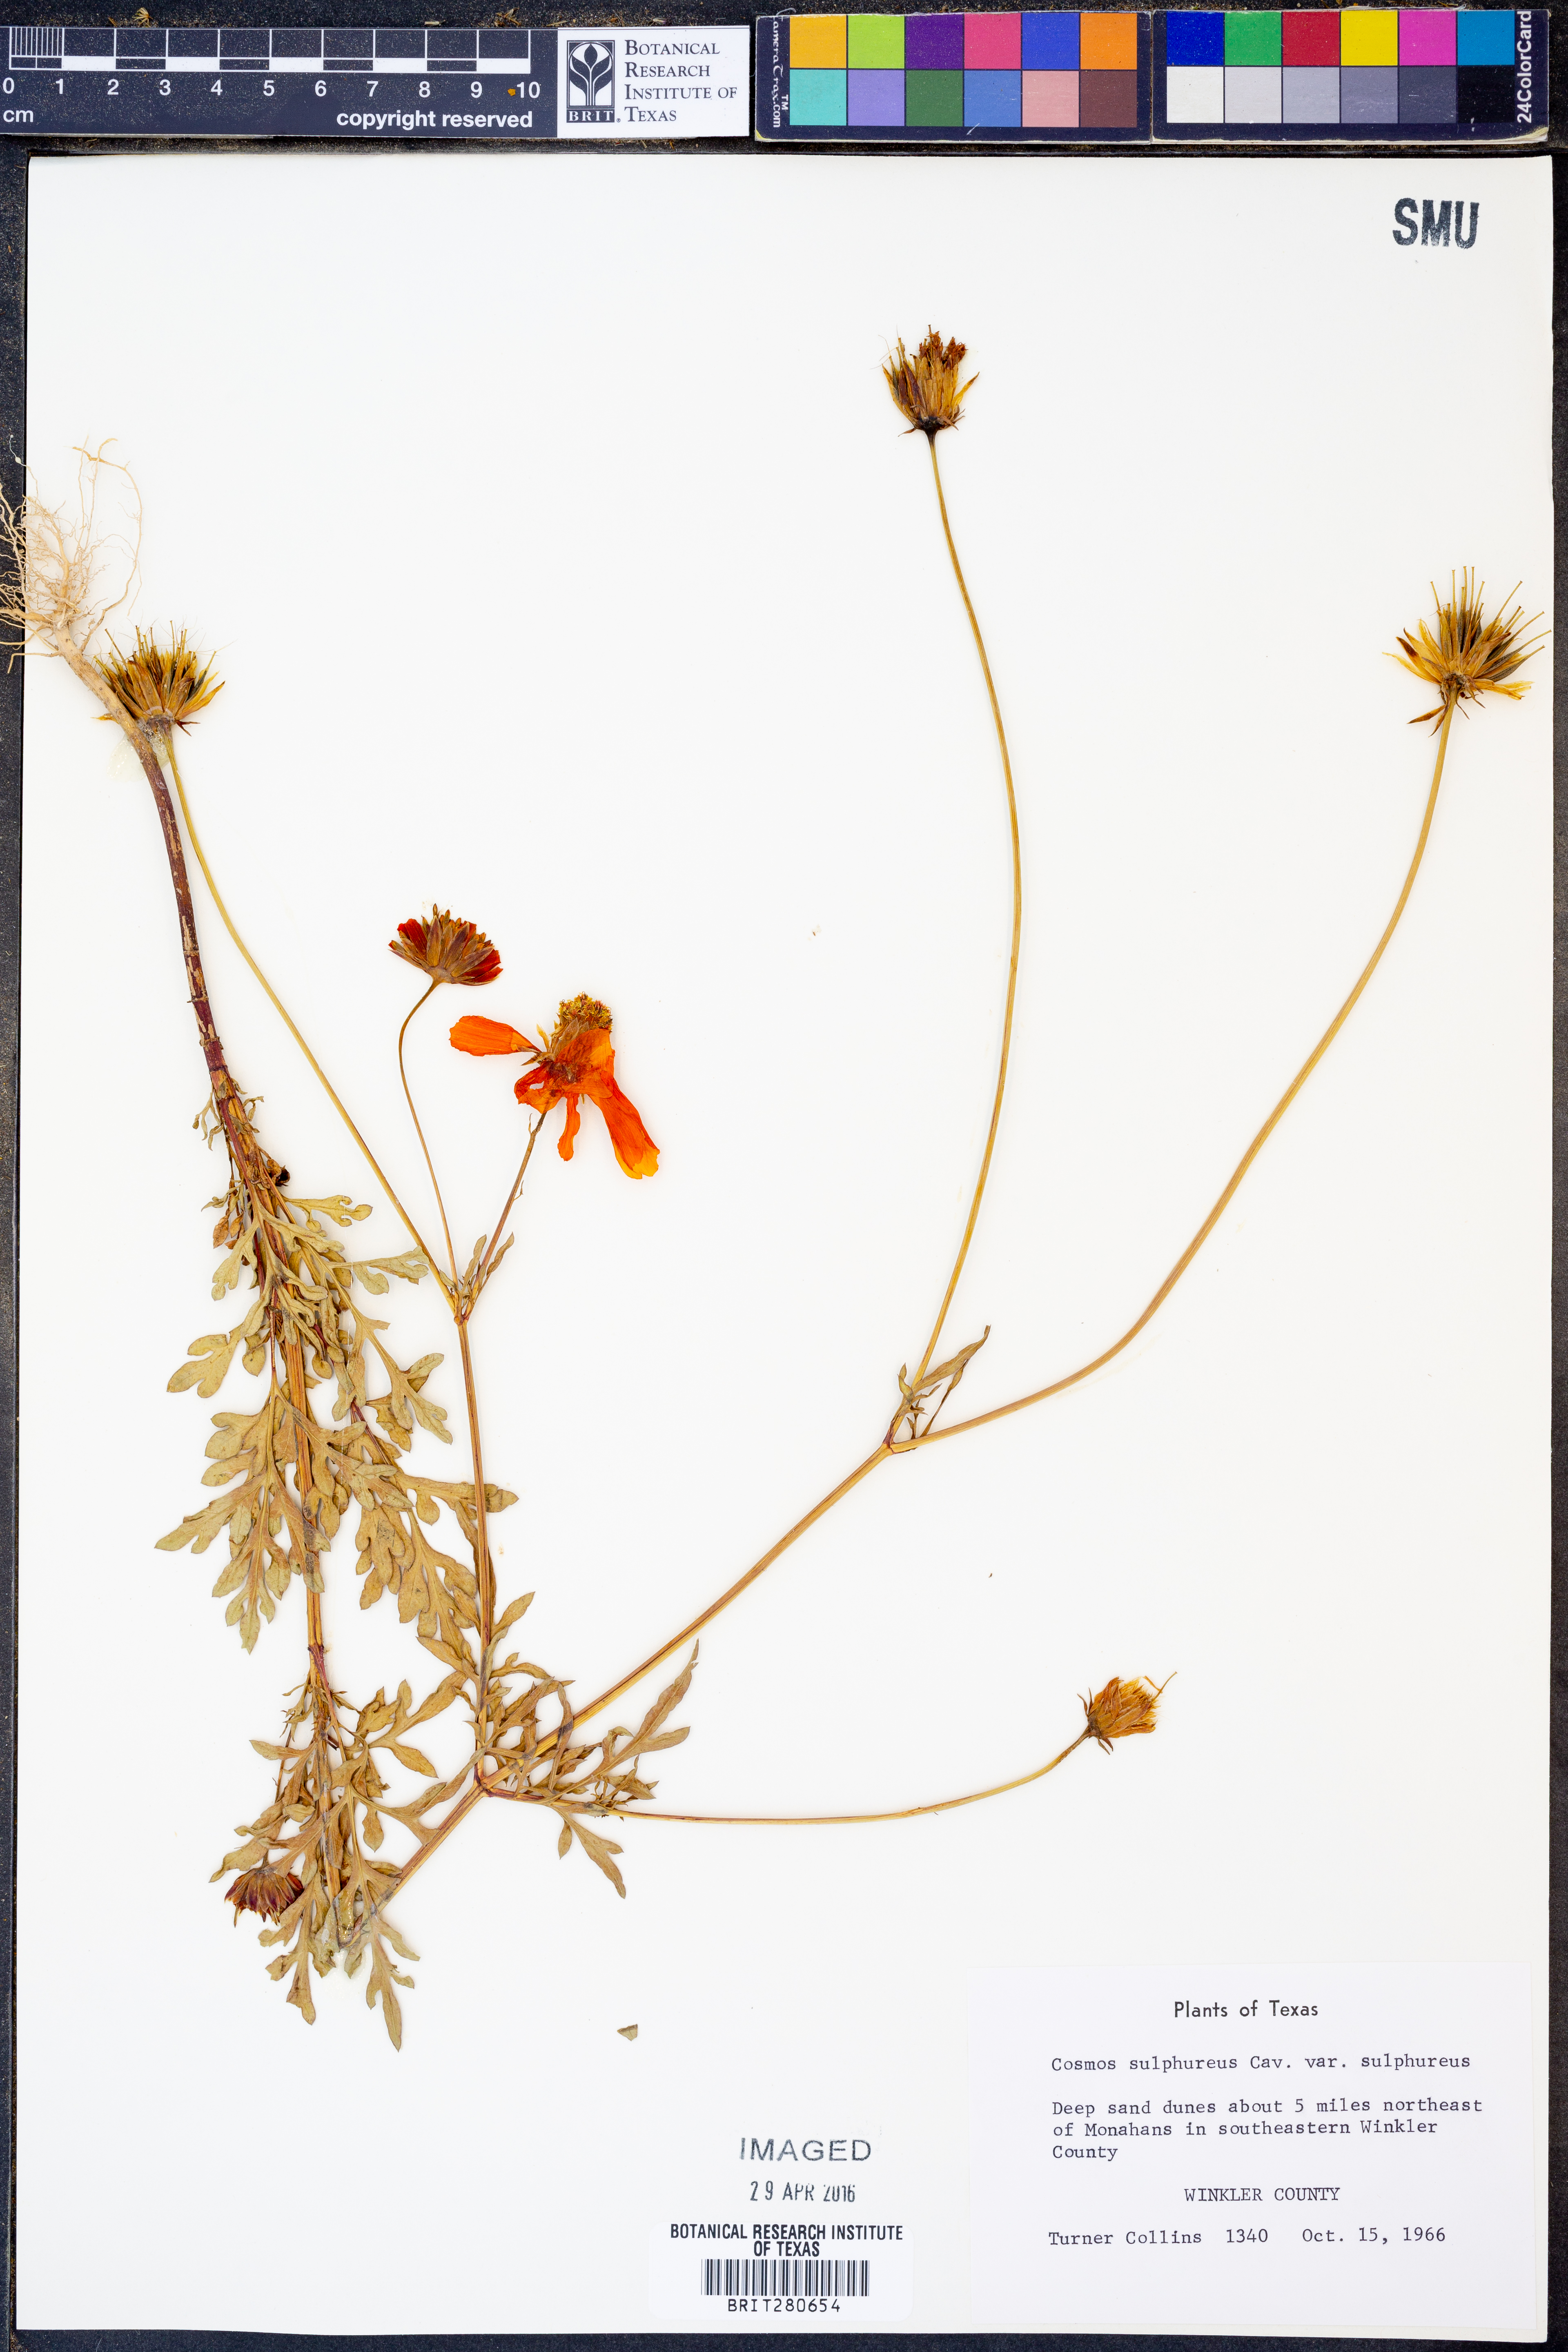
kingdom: Plantae
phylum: Tracheophyta
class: Magnoliopsida
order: Asterales
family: Asteraceae
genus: Cosmos
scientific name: Cosmos sulphureus
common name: Sulphur cosmos
